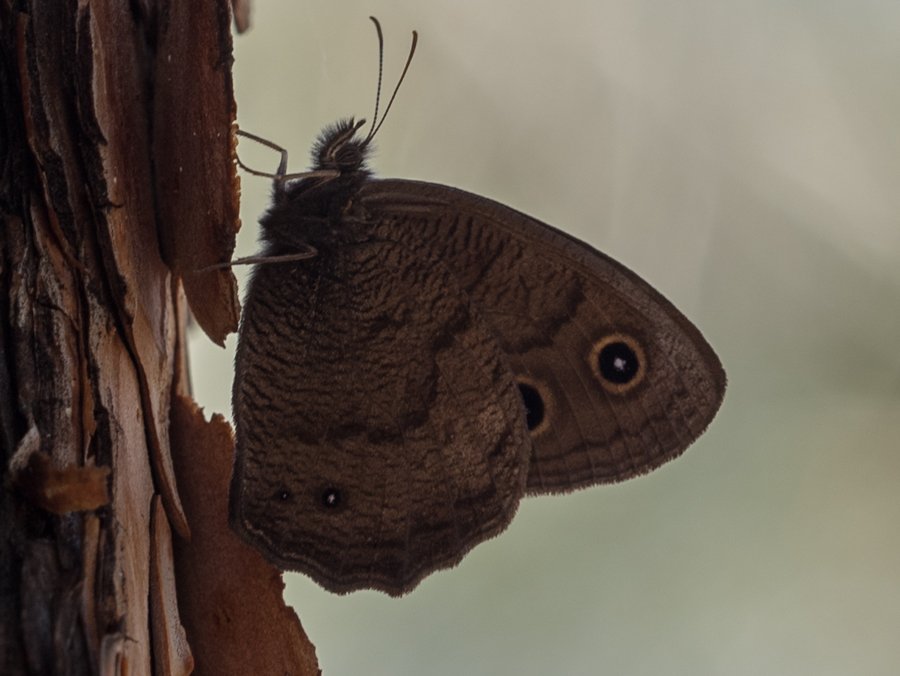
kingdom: Animalia
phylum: Arthropoda
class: Insecta
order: Lepidoptera
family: Nymphalidae
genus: Cercyonis
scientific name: Cercyonis pegala
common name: Common Wood-Nymph
